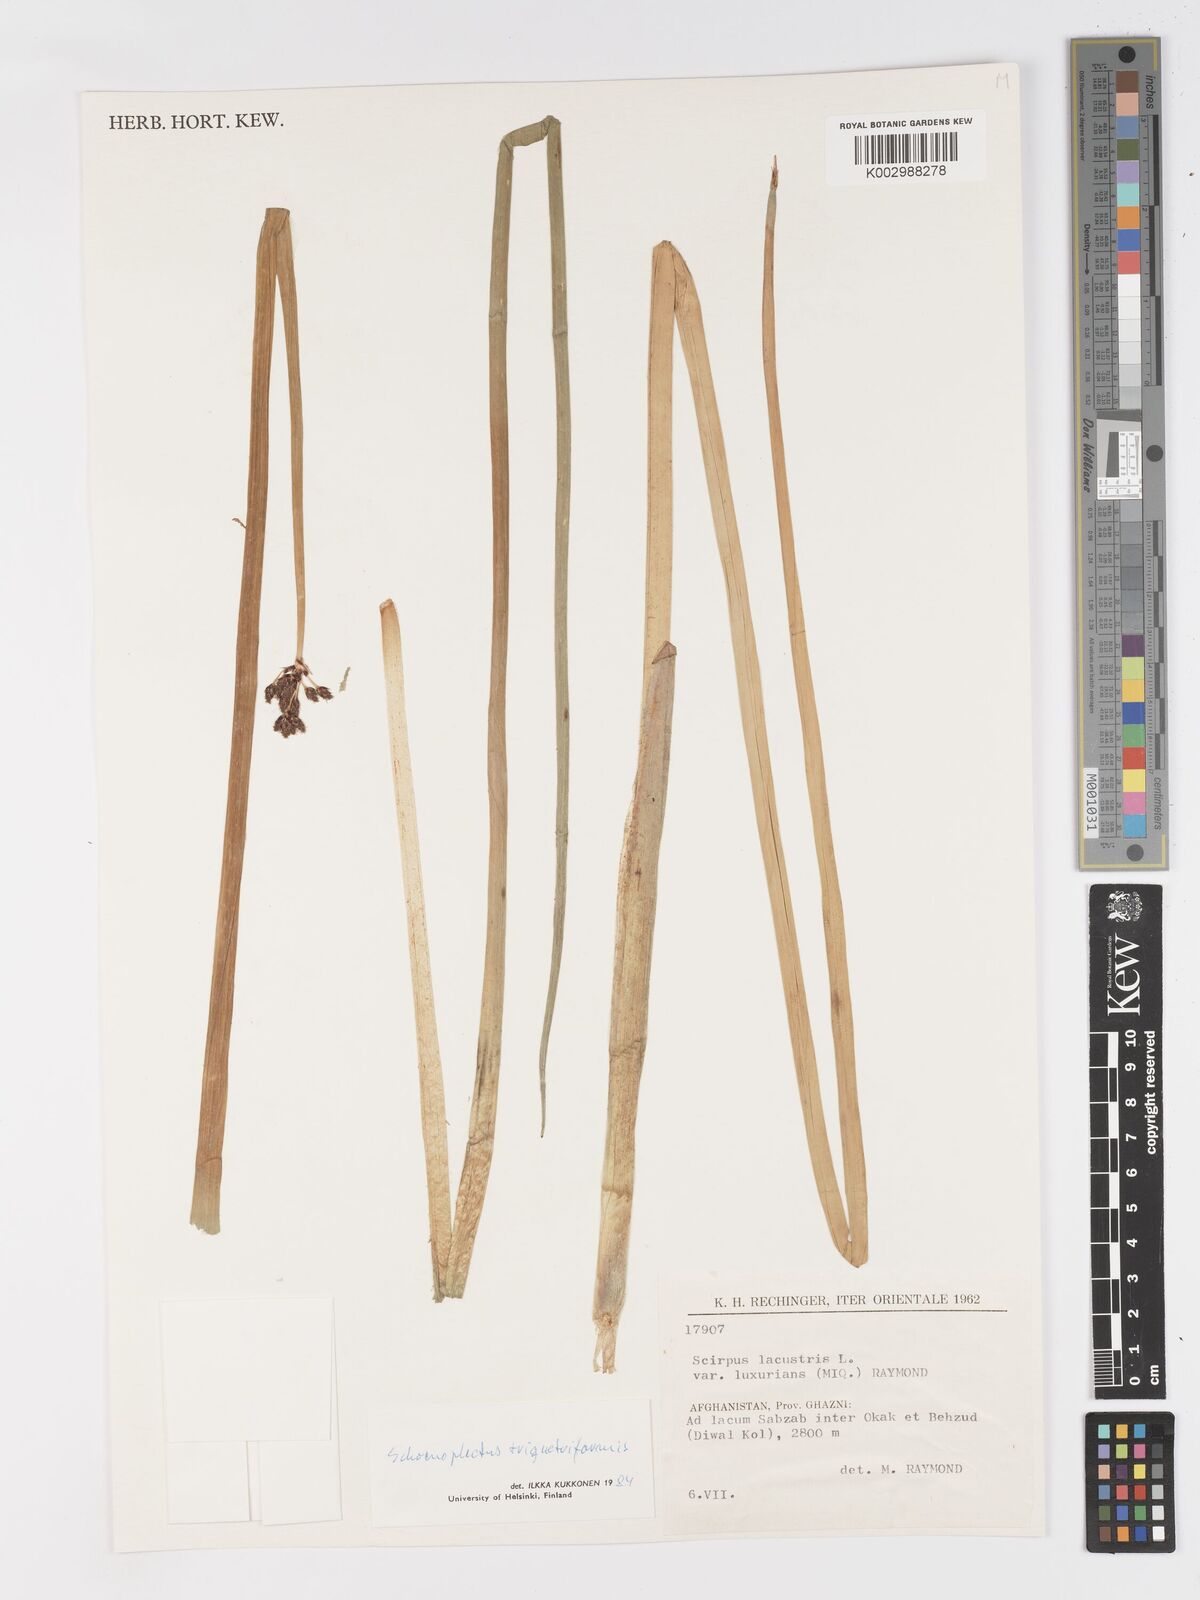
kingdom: Plantae
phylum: Tracheophyta
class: Liliopsida
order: Poales
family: Cyperaceae
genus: Schoenoplectus
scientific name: Schoenoplectus
